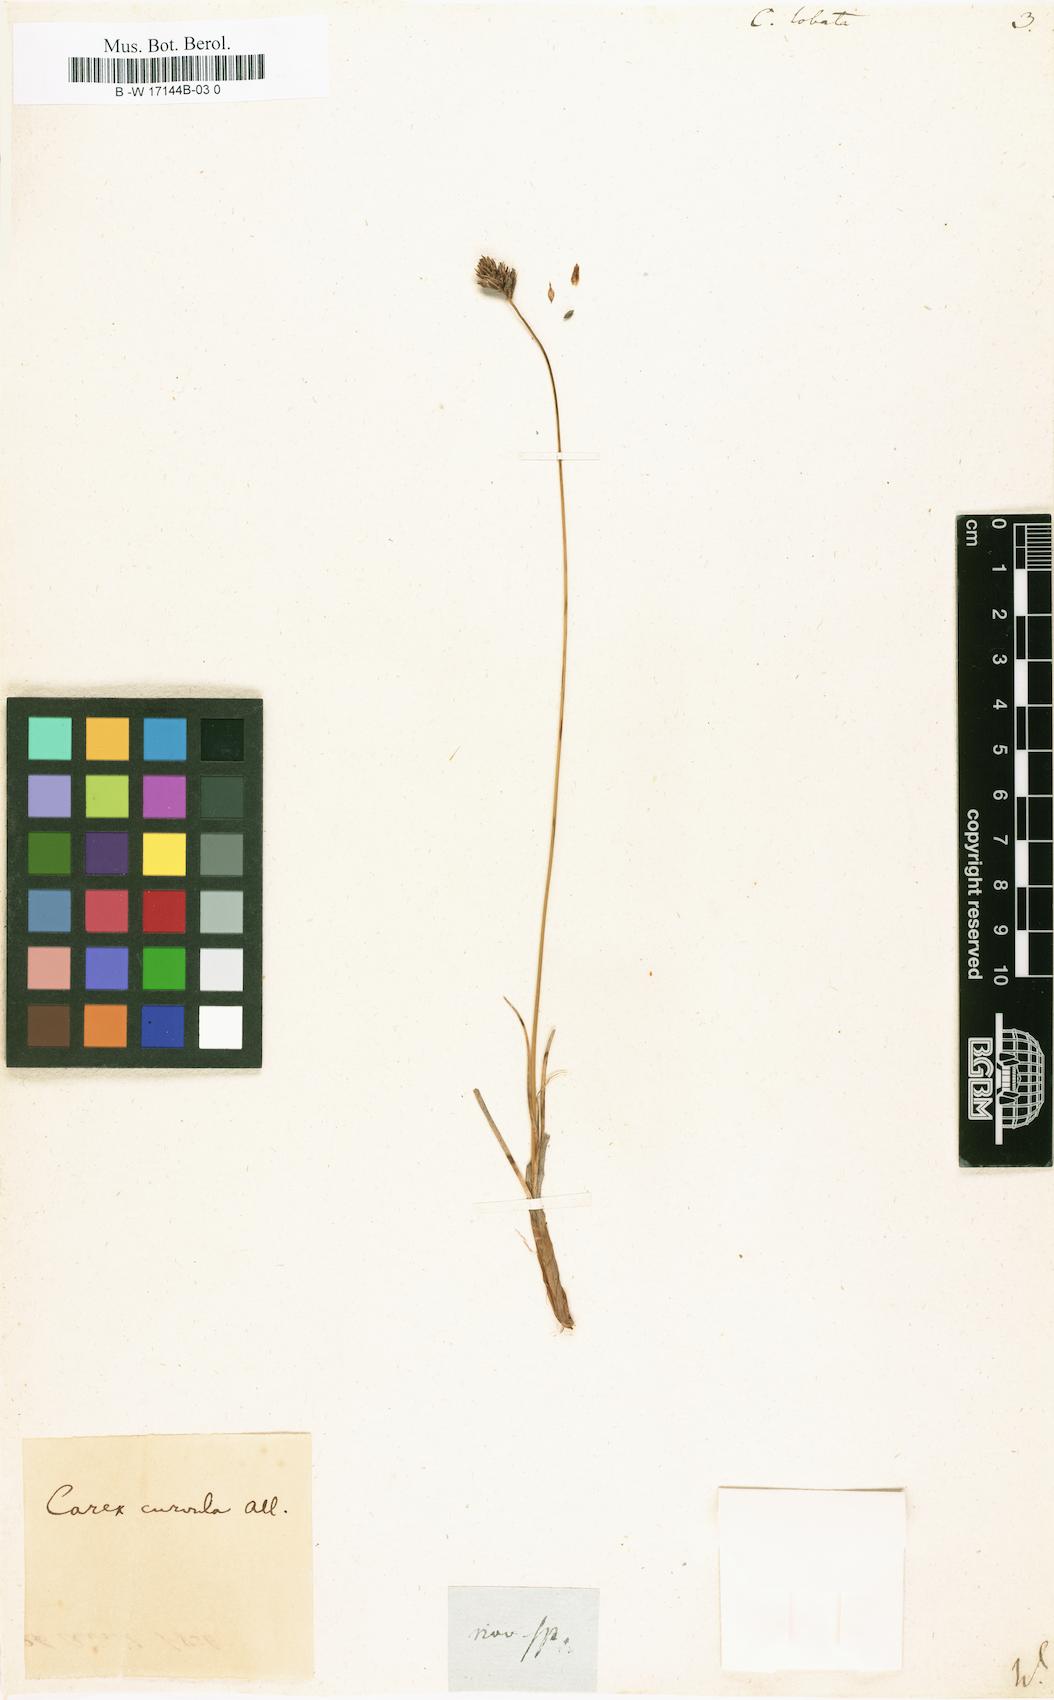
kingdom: Plantae
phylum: Tracheophyta
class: Liliopsida
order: Poales
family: Cyperaceae
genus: Carex
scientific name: Carex foetida
